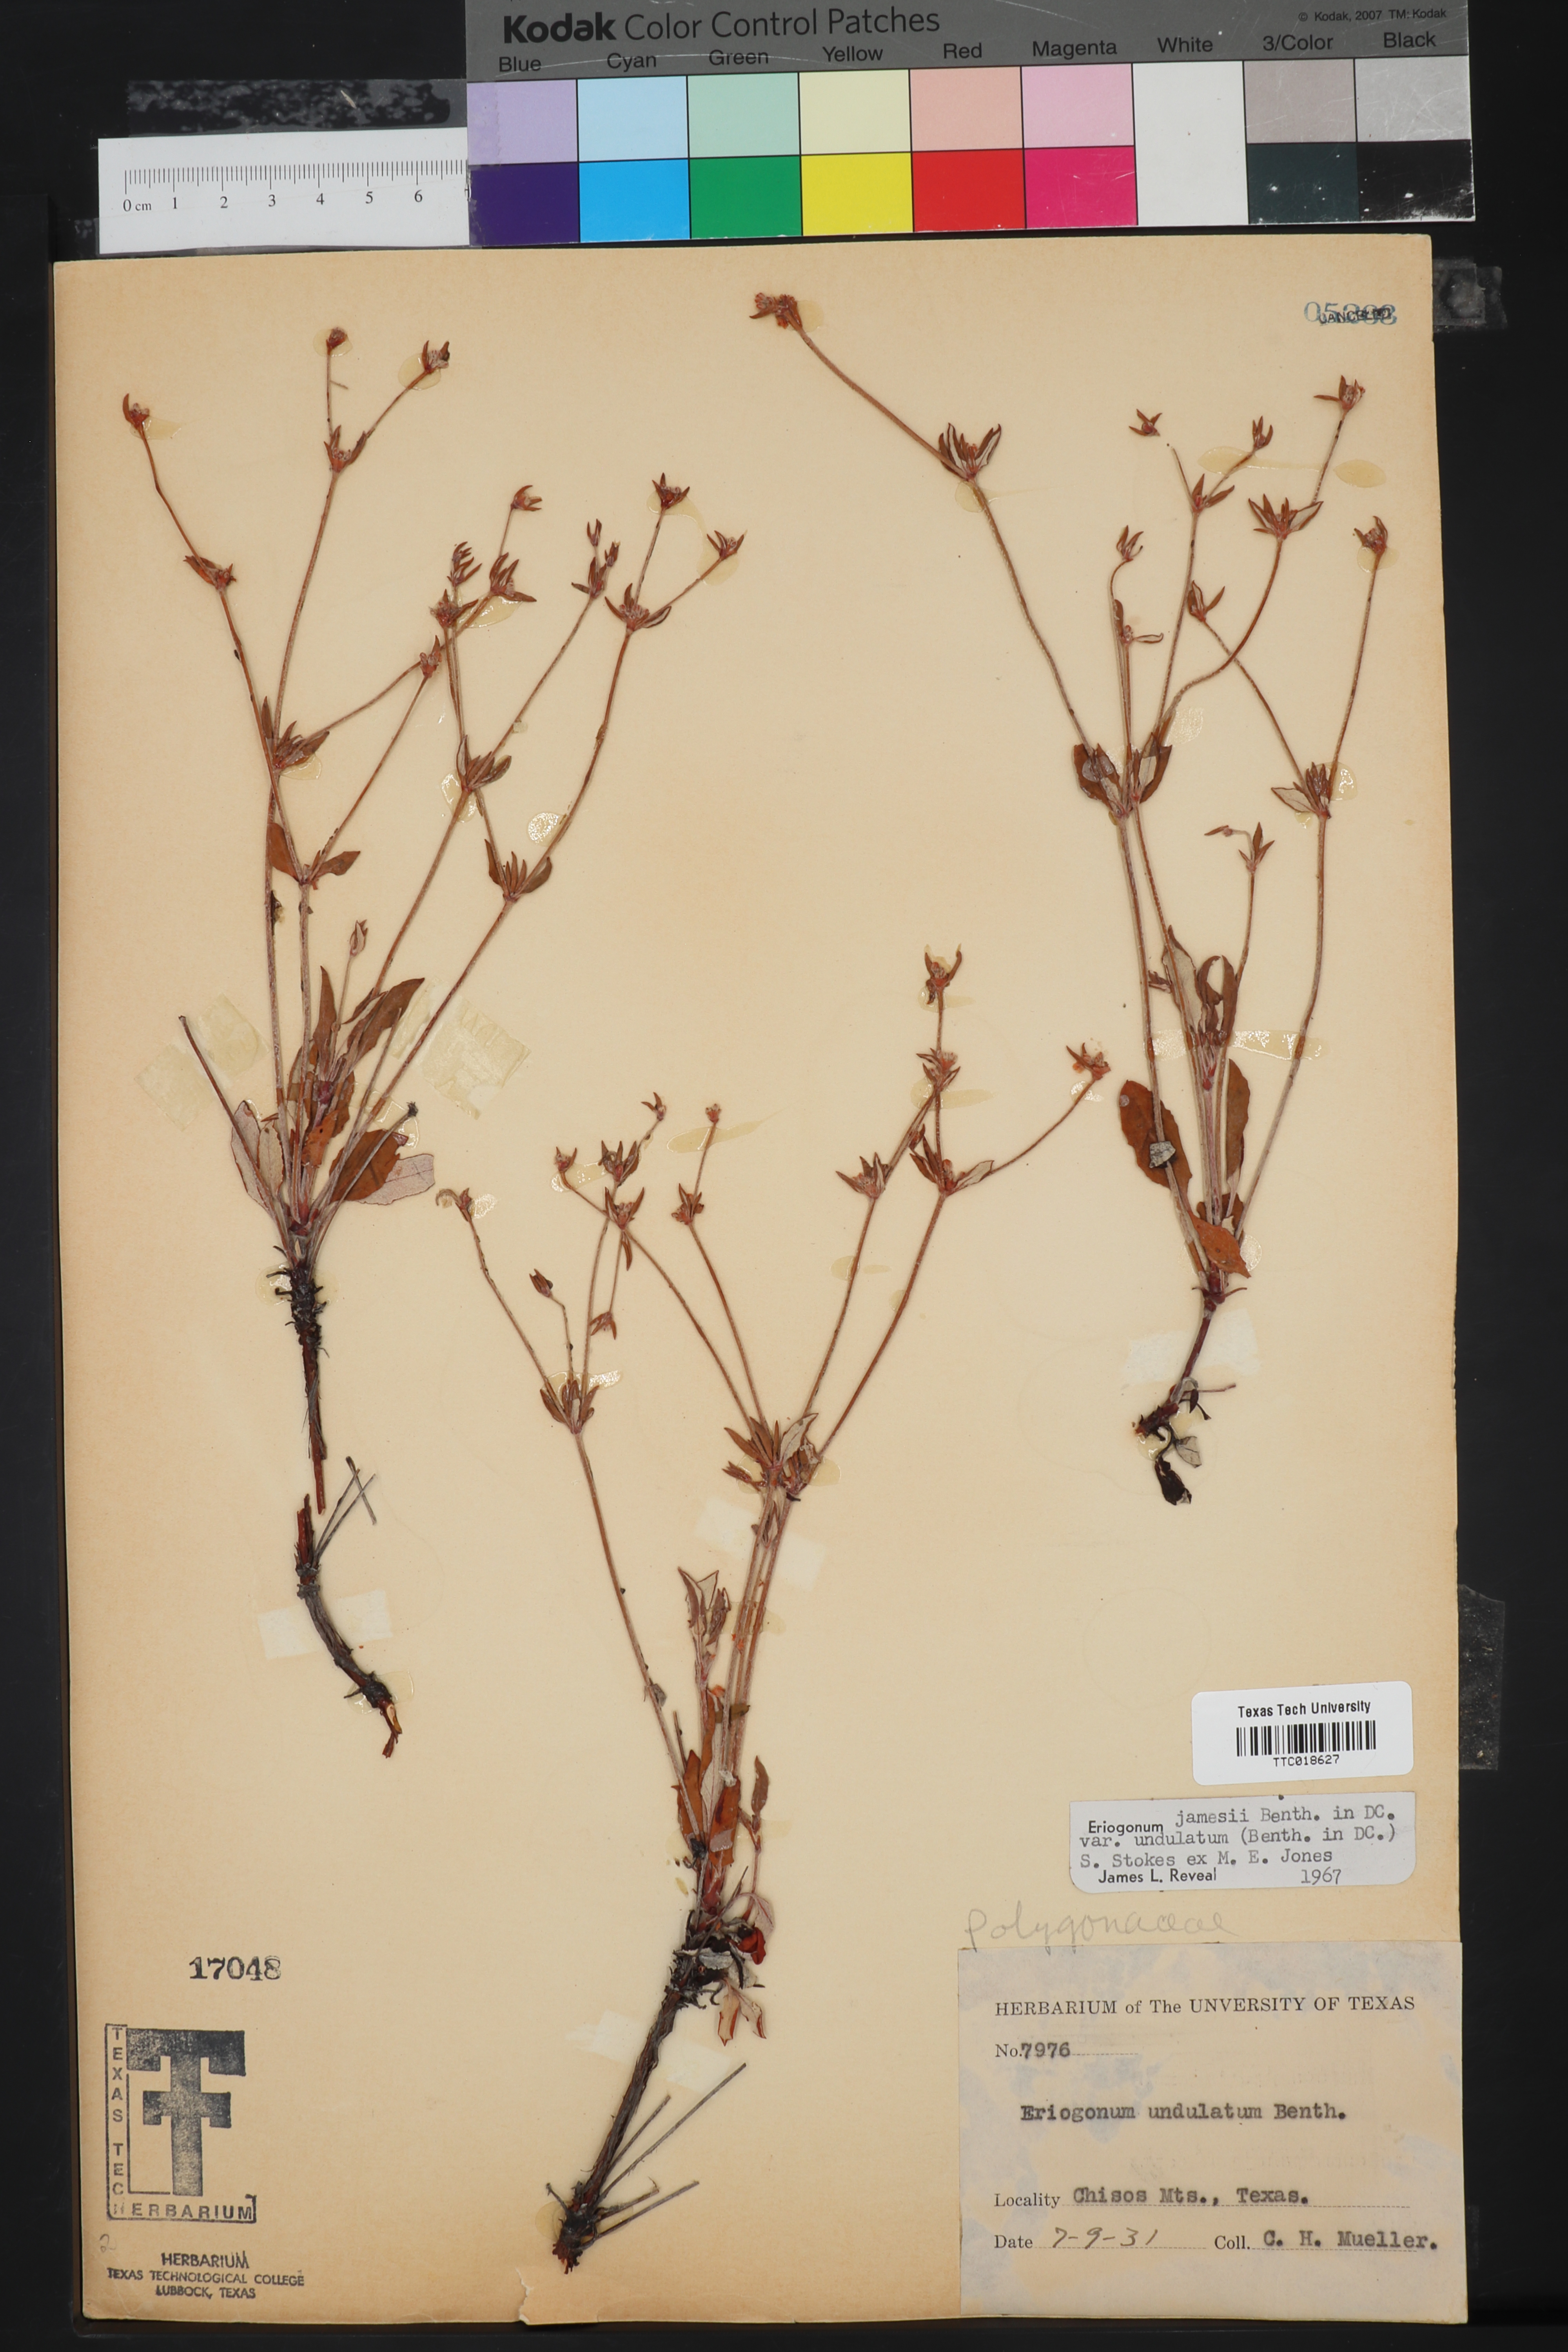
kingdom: Plantae
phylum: Tracheophyta
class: Magnoliopsida
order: Caryophyllales
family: Polygonaceae
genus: Eriogonum
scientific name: Eriogonum jamesii
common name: Antelope-sage
